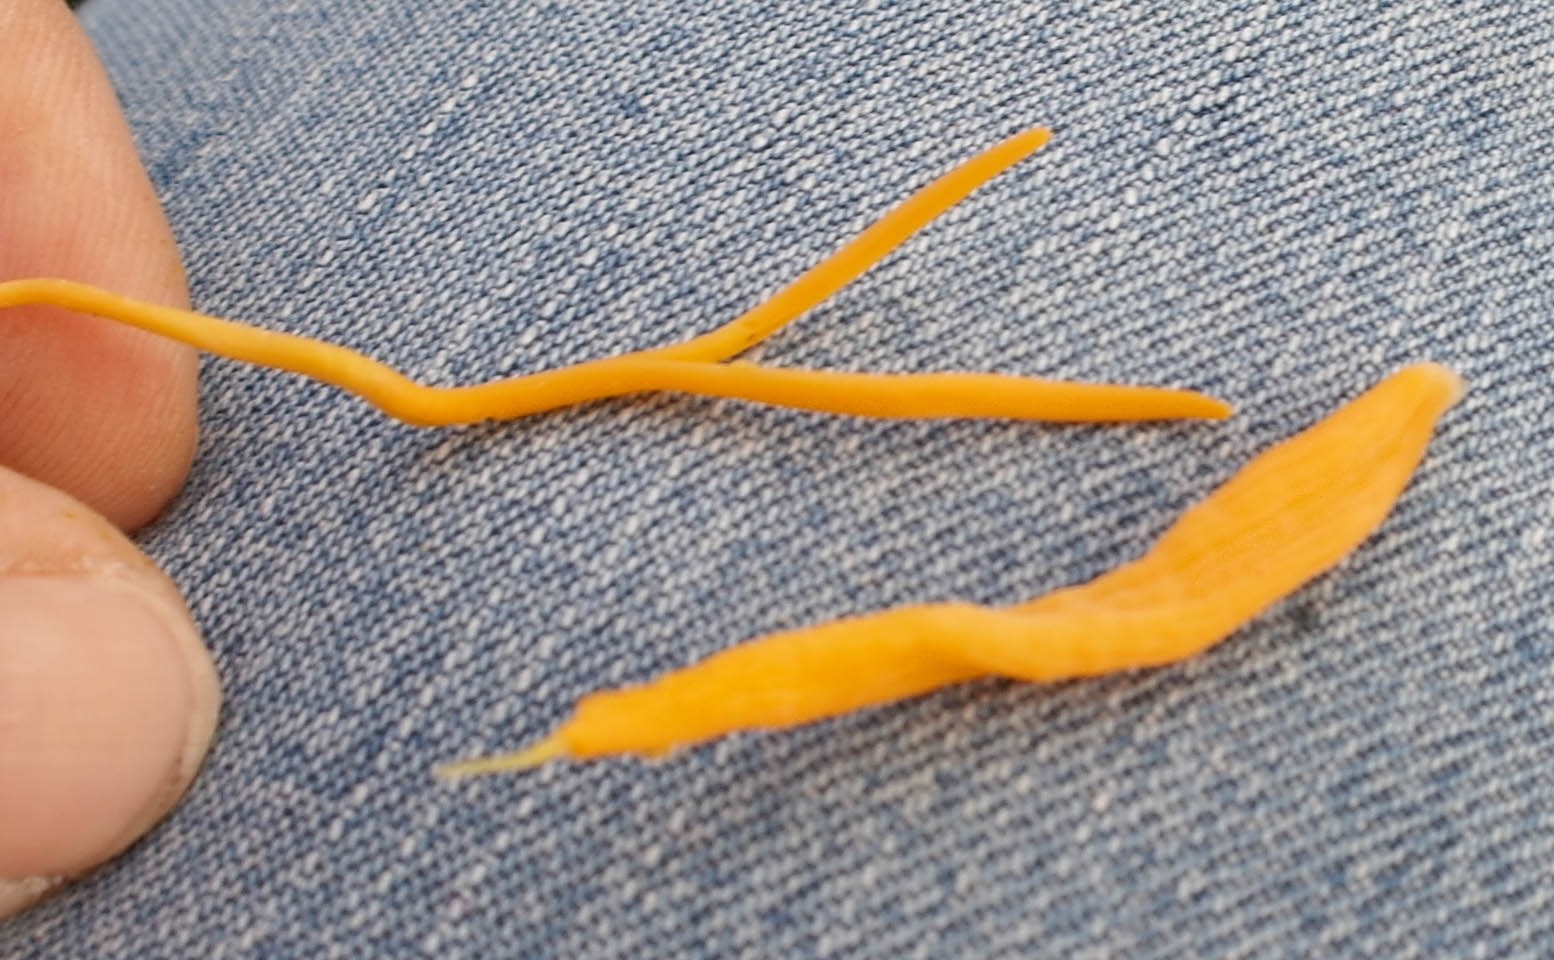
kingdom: Fungi
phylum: Basidiomycota
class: Agaricomycetes
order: Agaricales
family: Clavariaceae
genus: Clavulinopsis
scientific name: Clavulinopsis luteoalba
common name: abrikos-køllesvamp
